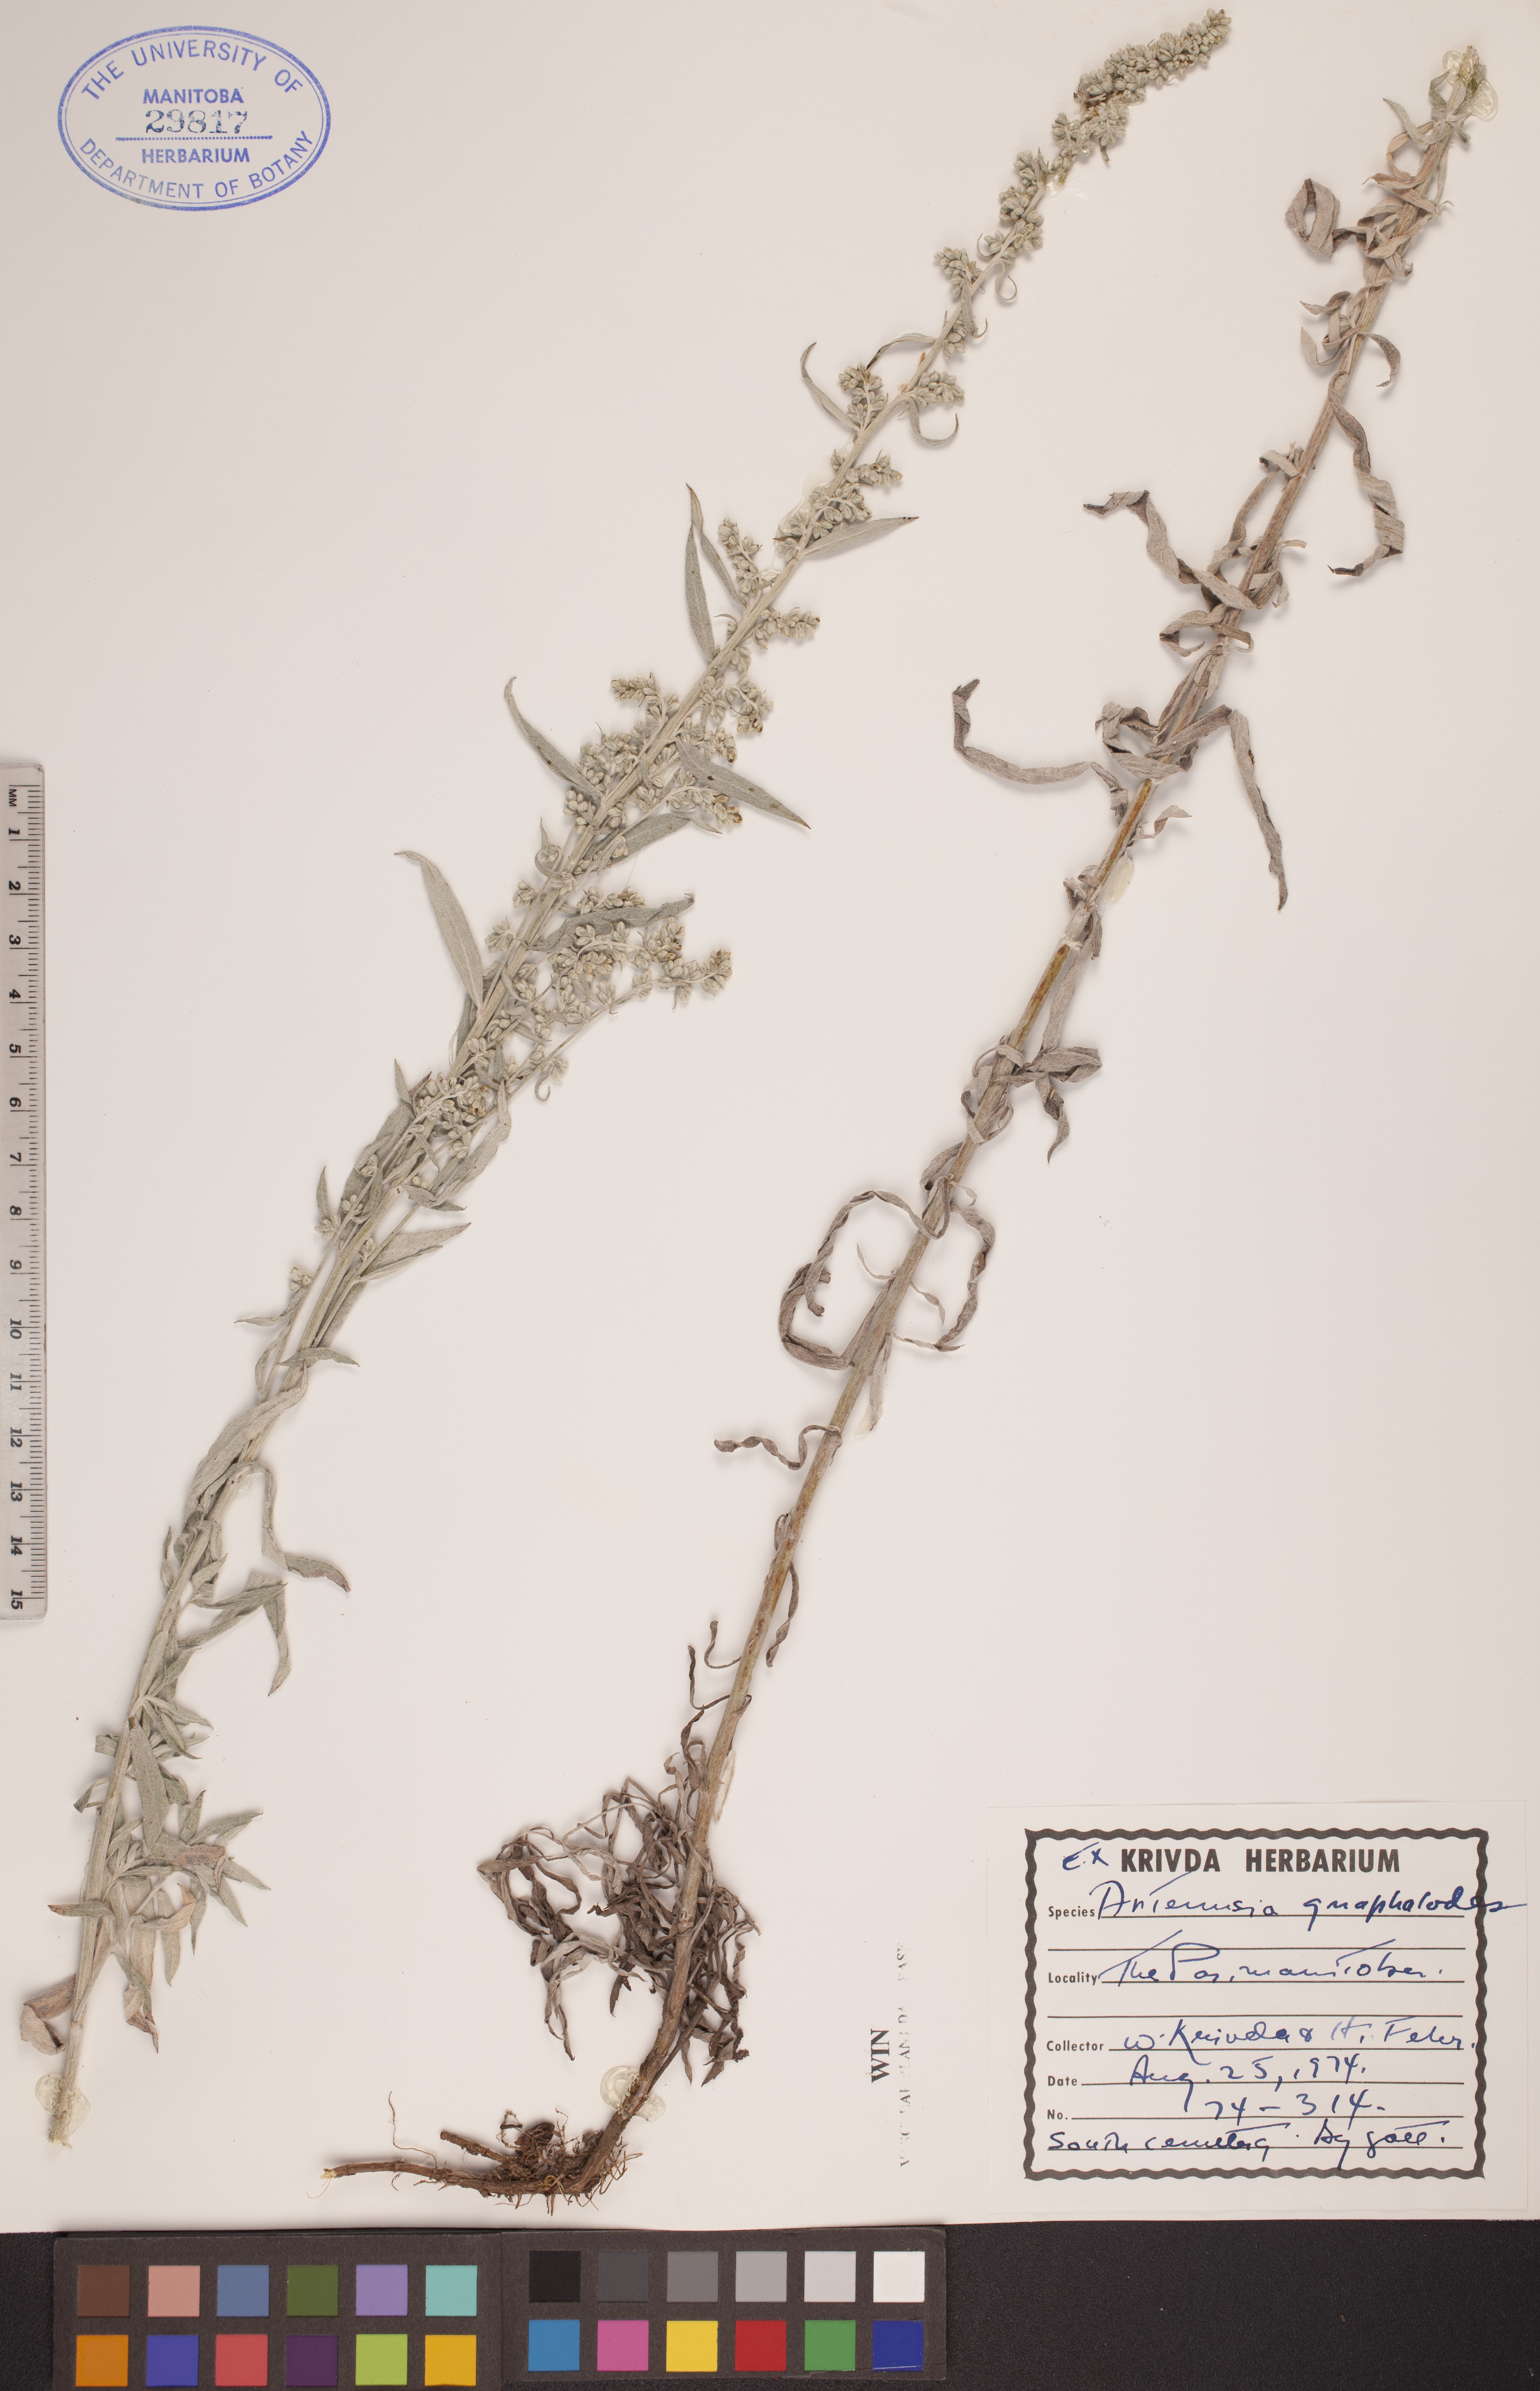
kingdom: Plantae
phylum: Tracheophyta
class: Magnoliopsida
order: Asterales
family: Asteraceae
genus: Artemisia
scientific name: Artemisia ludoviciana
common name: Western mugwort
